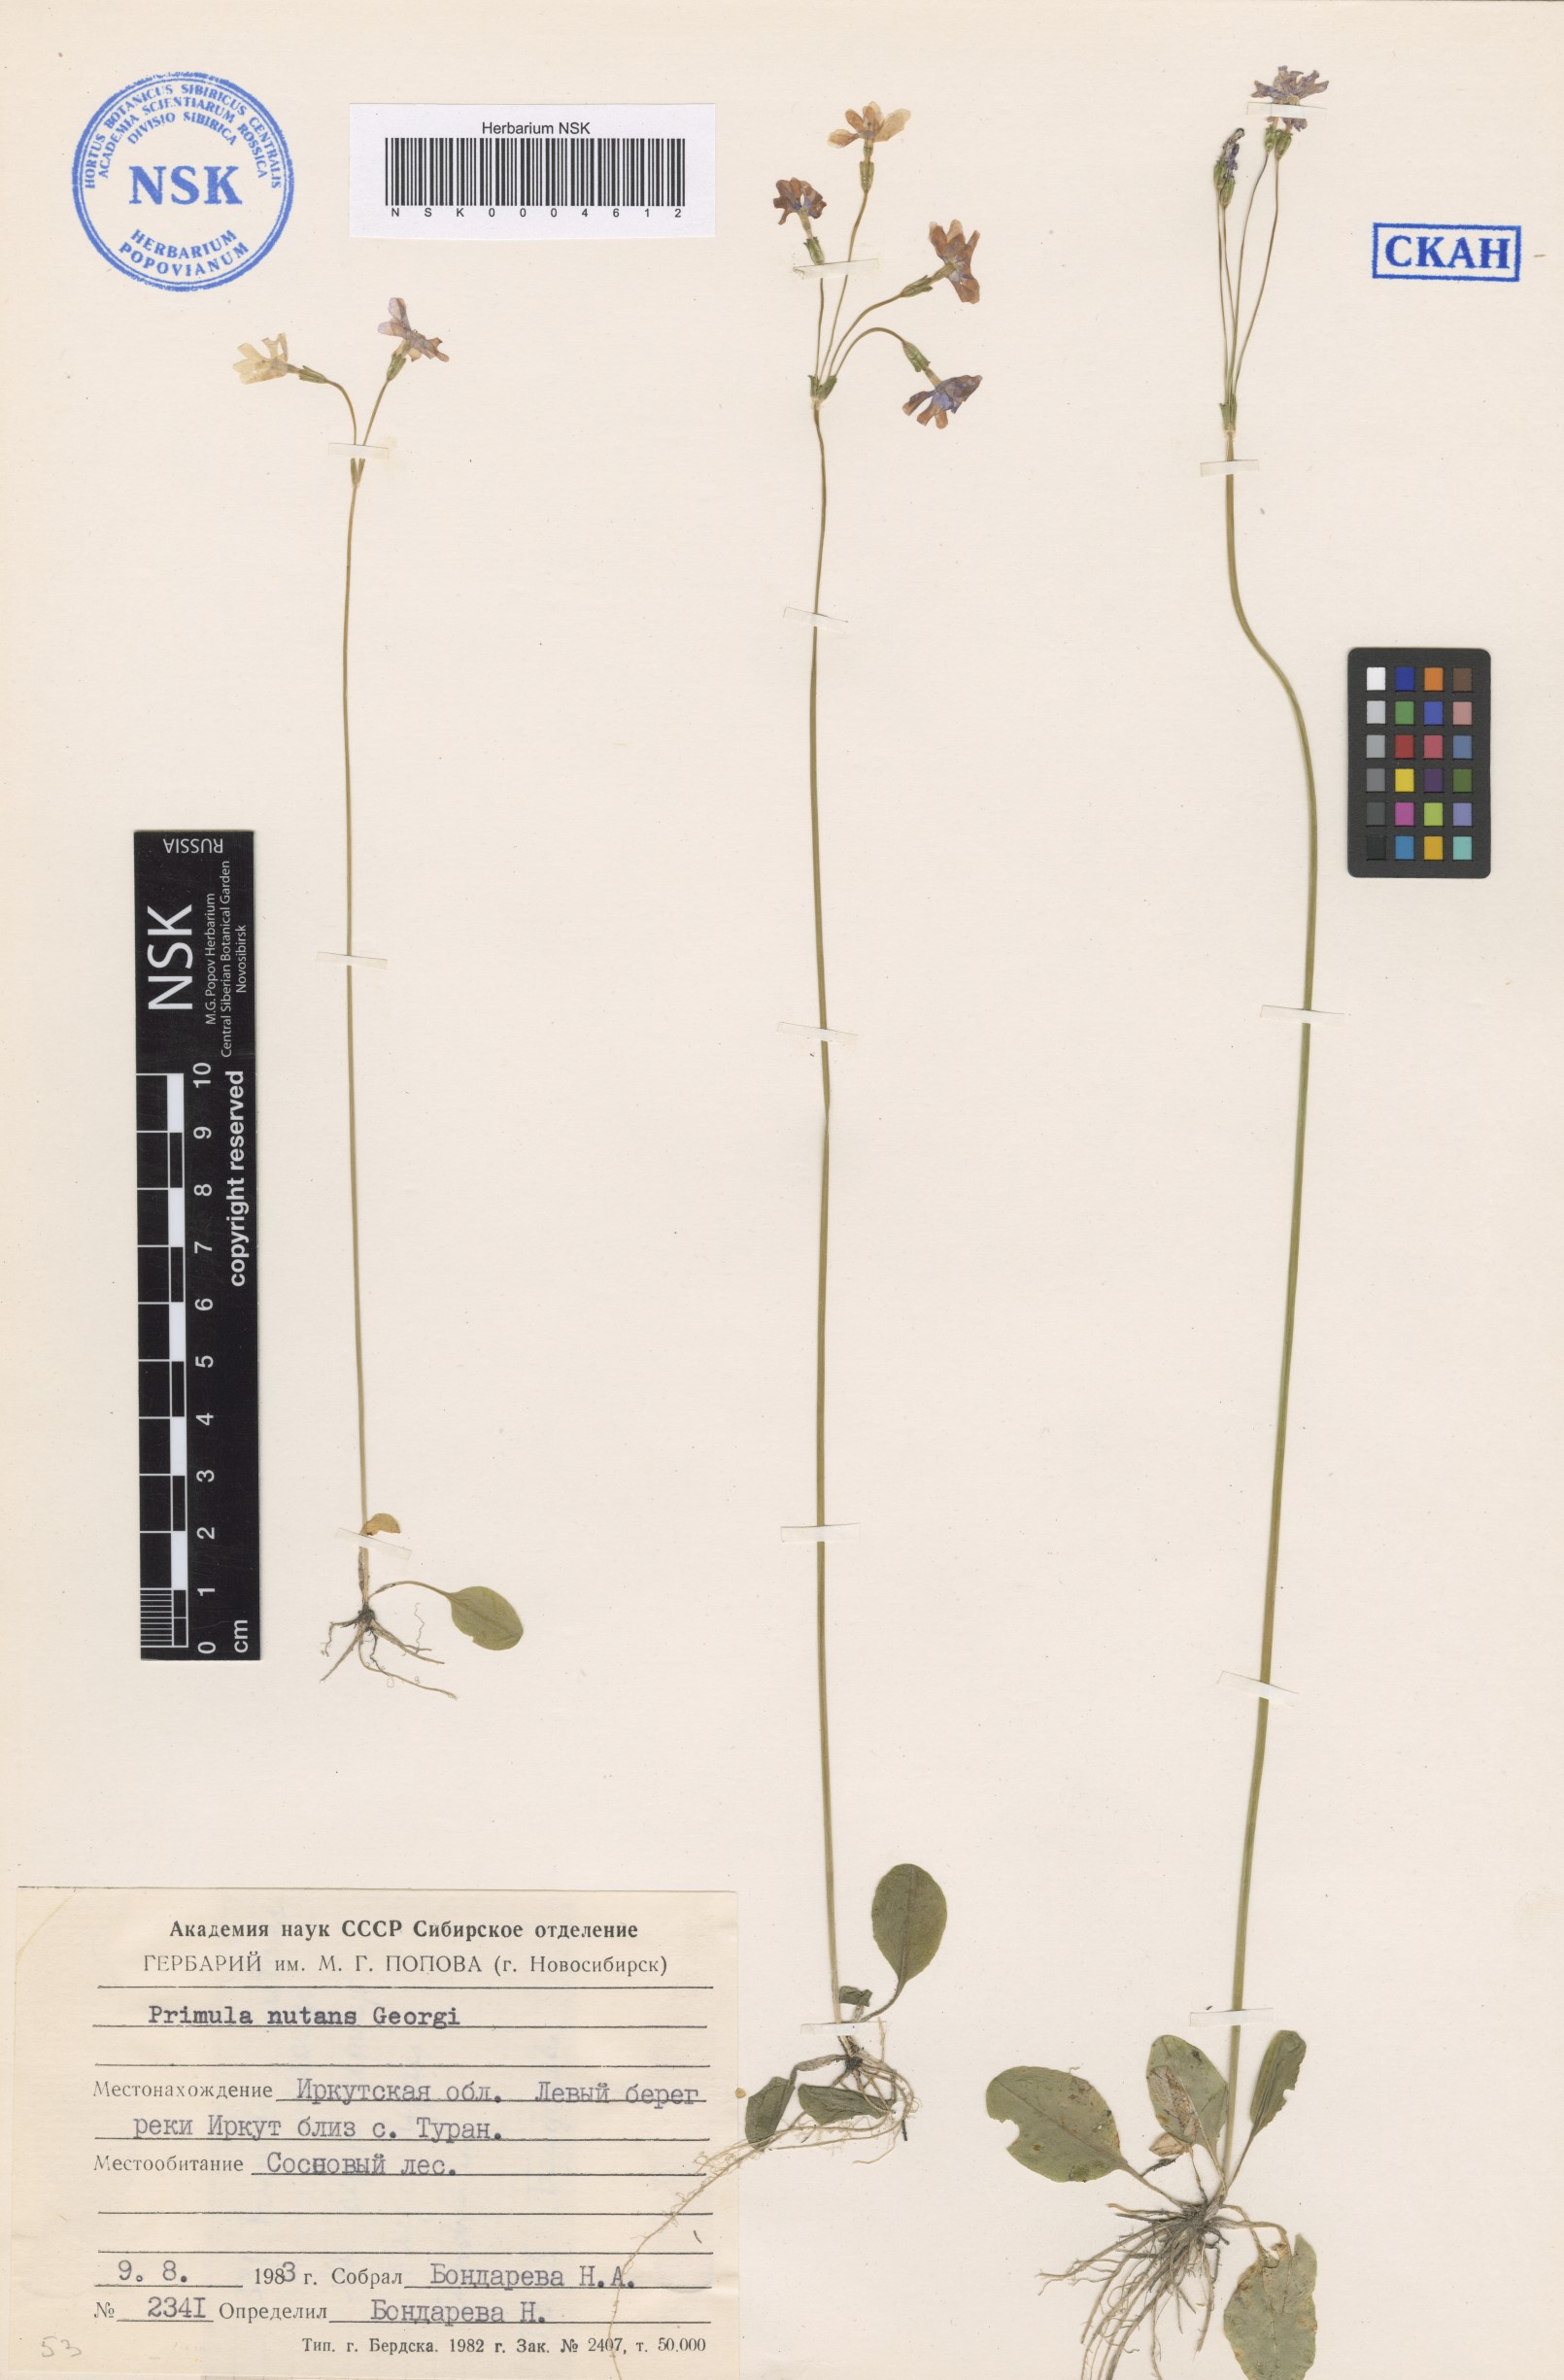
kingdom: Plantae
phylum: Tracheophyta
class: Magnoliopsida
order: Ericales
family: Primulaceae
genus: Primula
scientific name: Primula nutans
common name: Siberian primrose
